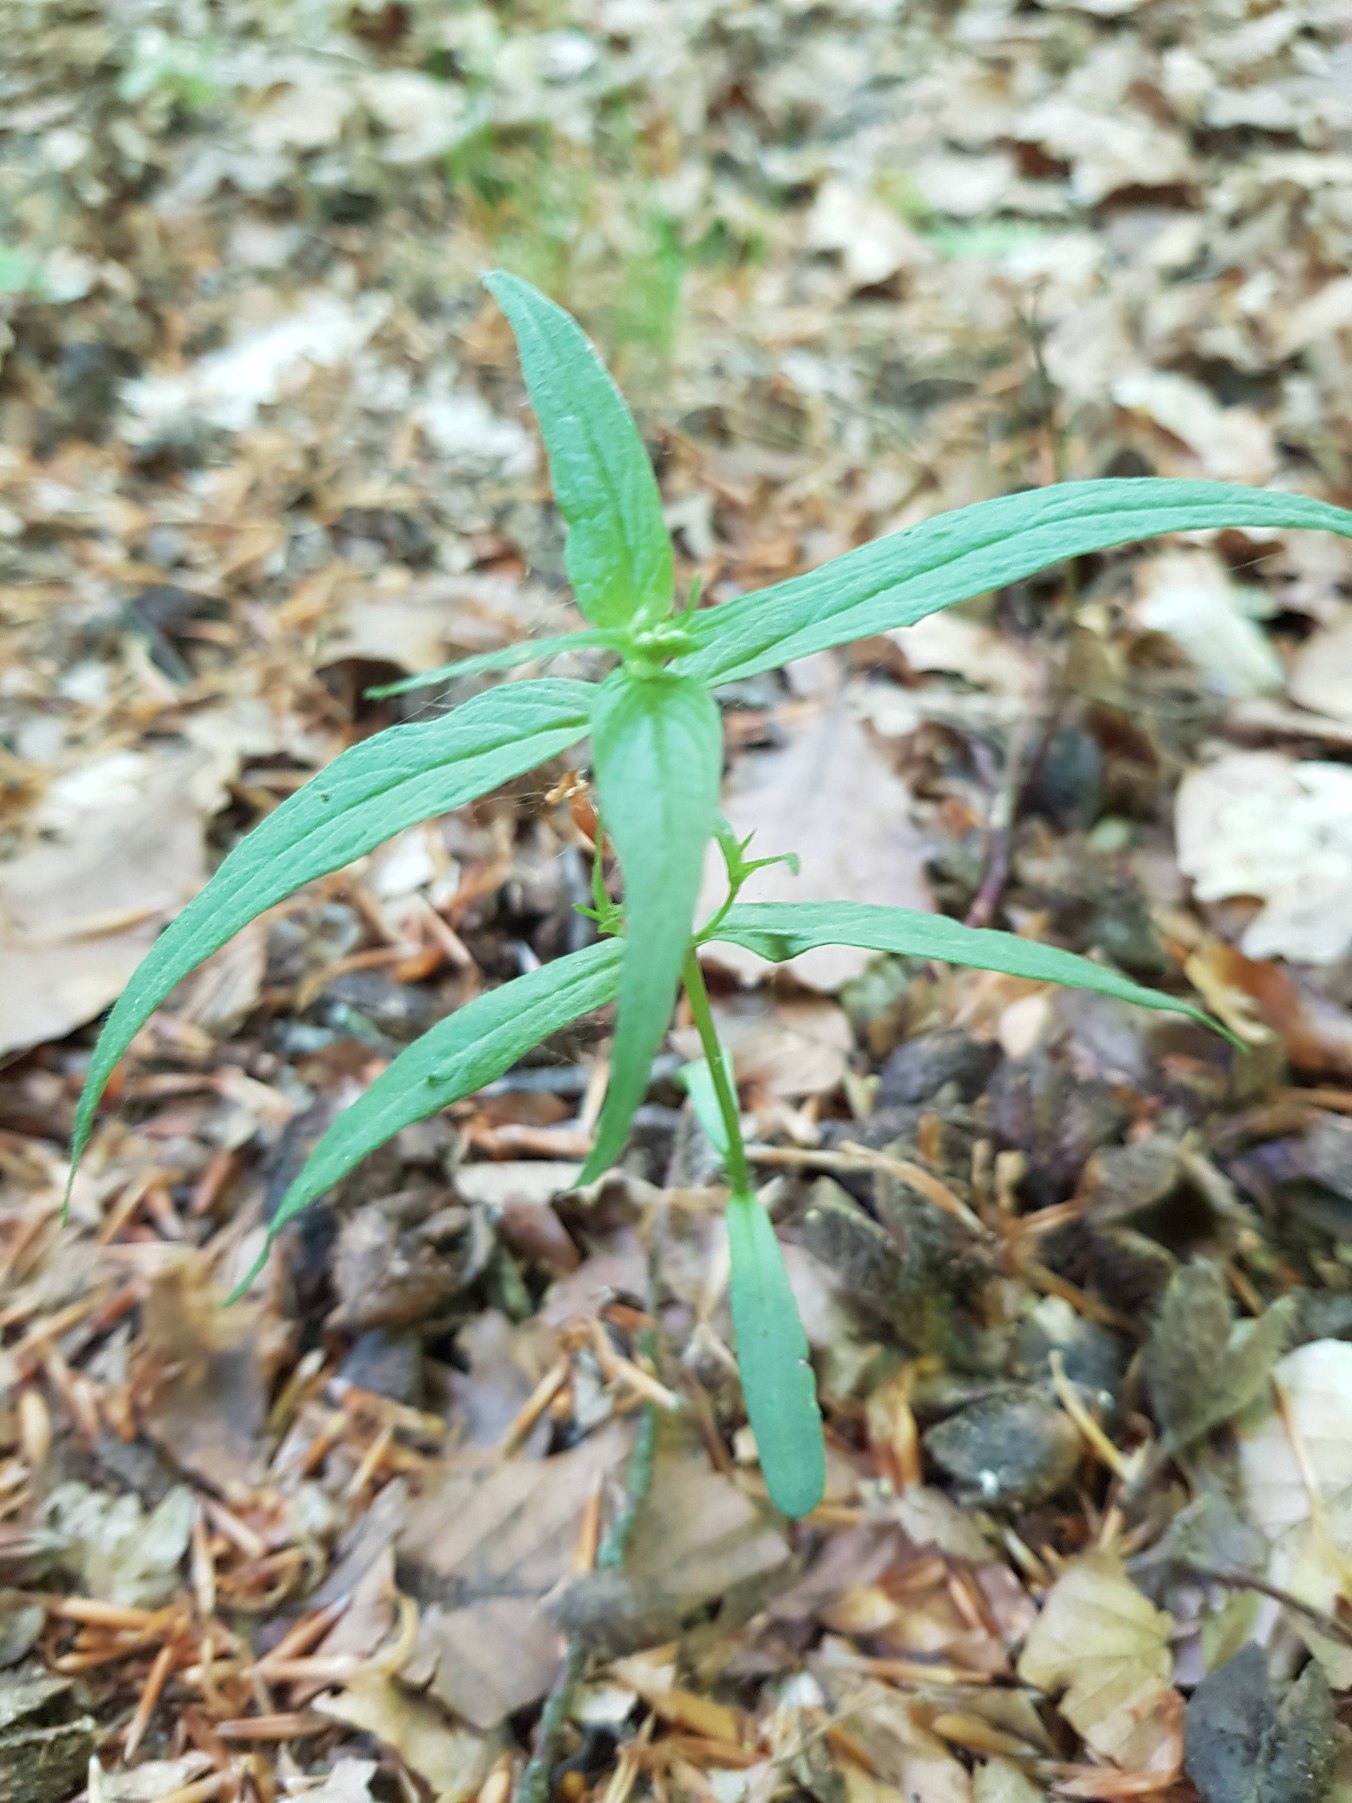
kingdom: Plantae
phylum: Tracheophyta
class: Magnoliopsida
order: Lamiales
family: Orobanchaceae
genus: Melampyrum
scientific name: Melampyrum pratense
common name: Almindelig kohvede
